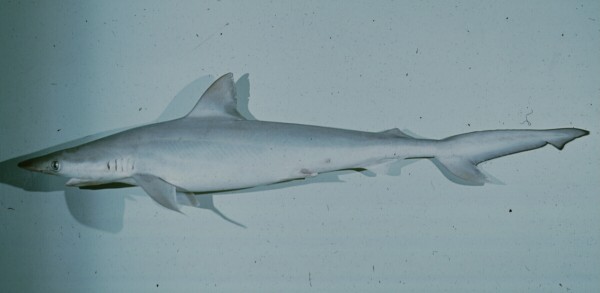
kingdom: Animalia
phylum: Chordata
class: Elasmobranchii
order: Carcharhiniformes
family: Carcharhinidae
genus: Rhizoprionodon
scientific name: Rhizoprionodon acutus
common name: Milk shark
